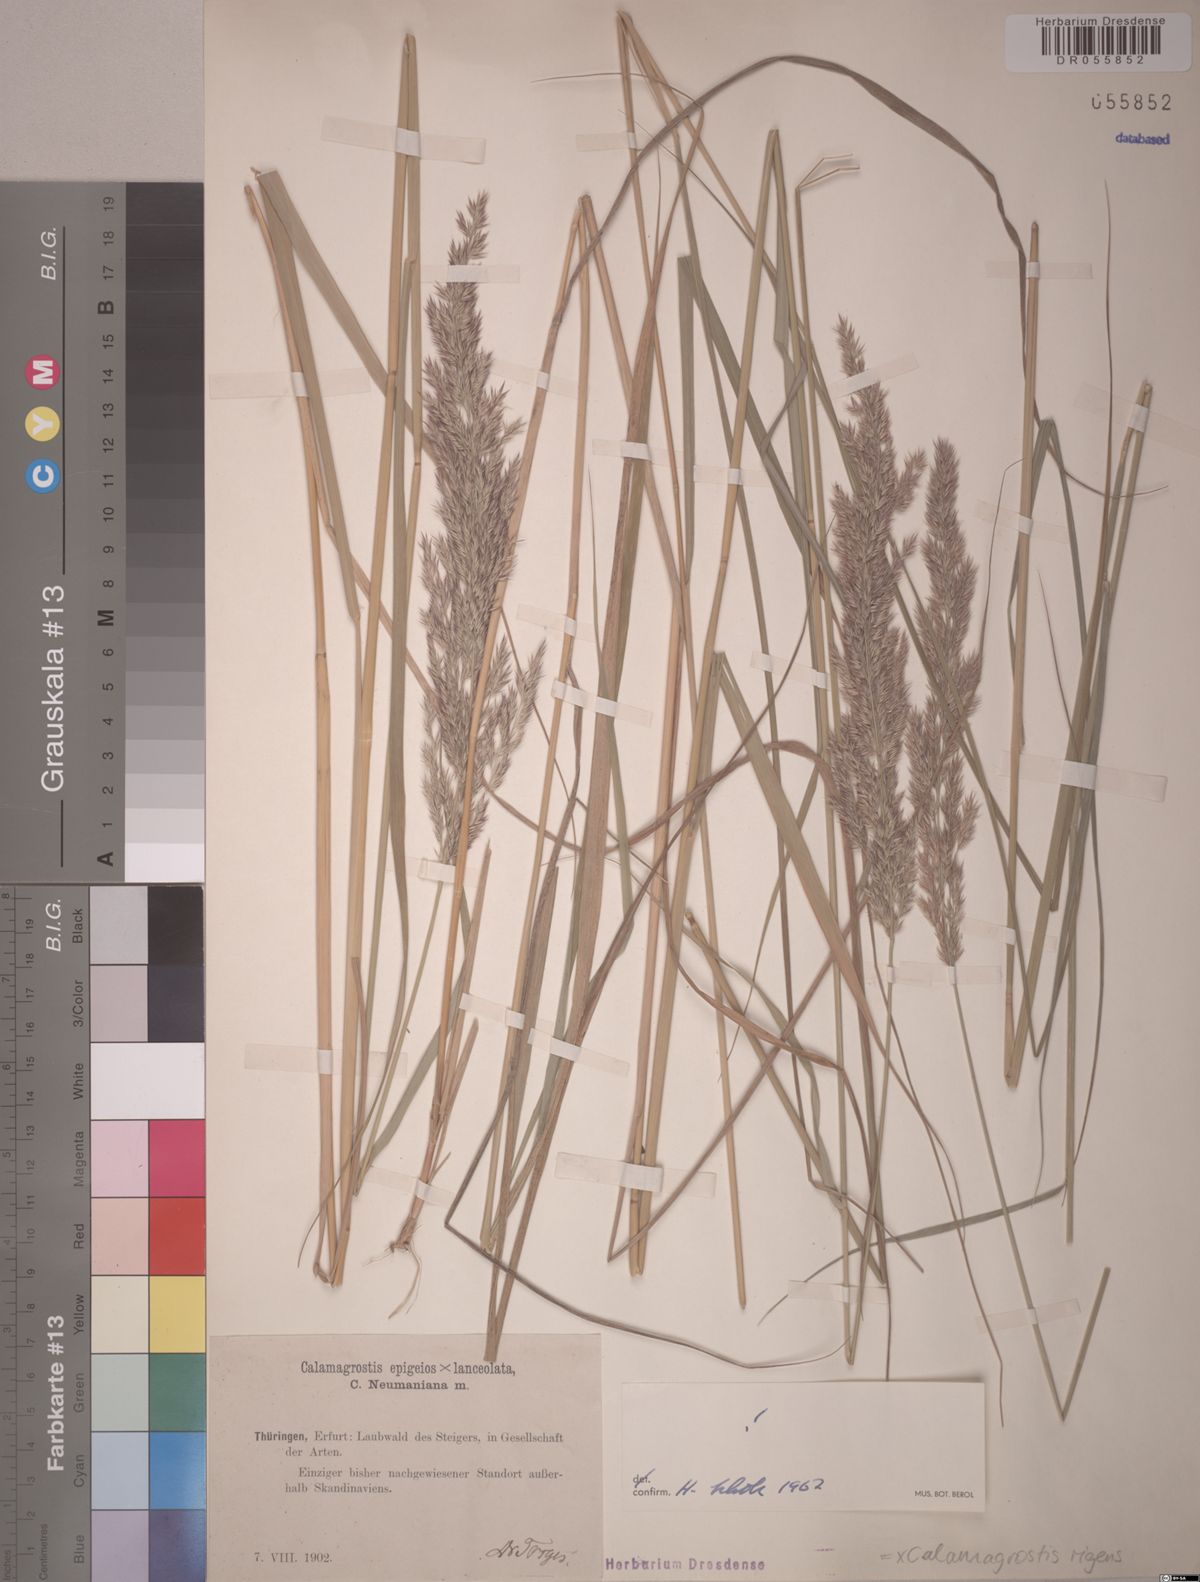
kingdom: Plantae
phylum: Tracheophyta
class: Liliopsida
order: Poales
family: Poaceae
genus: Calamagrostis
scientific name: Calamagrostis rigens
